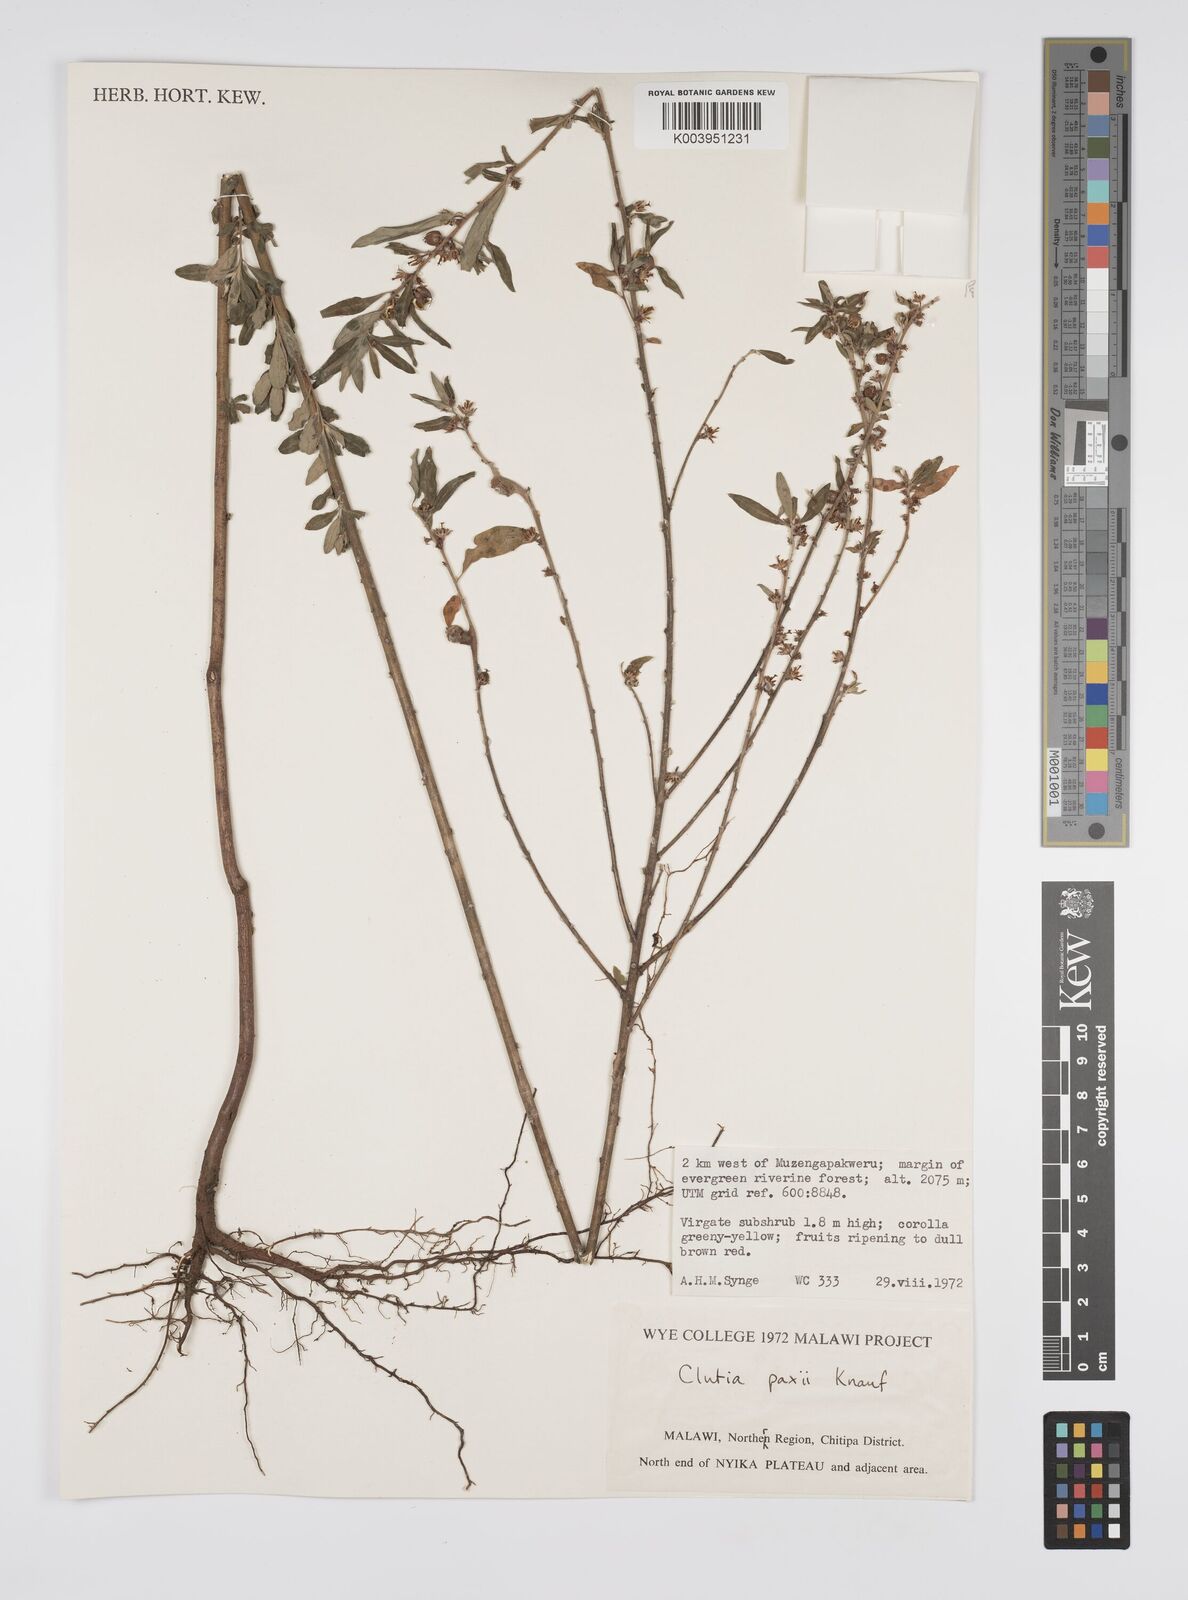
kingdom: Plantae
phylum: Tracheophyta
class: Magnoliopsida
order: Malpighiales
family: Peraceae
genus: Clutia
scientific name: Clutia paxii
